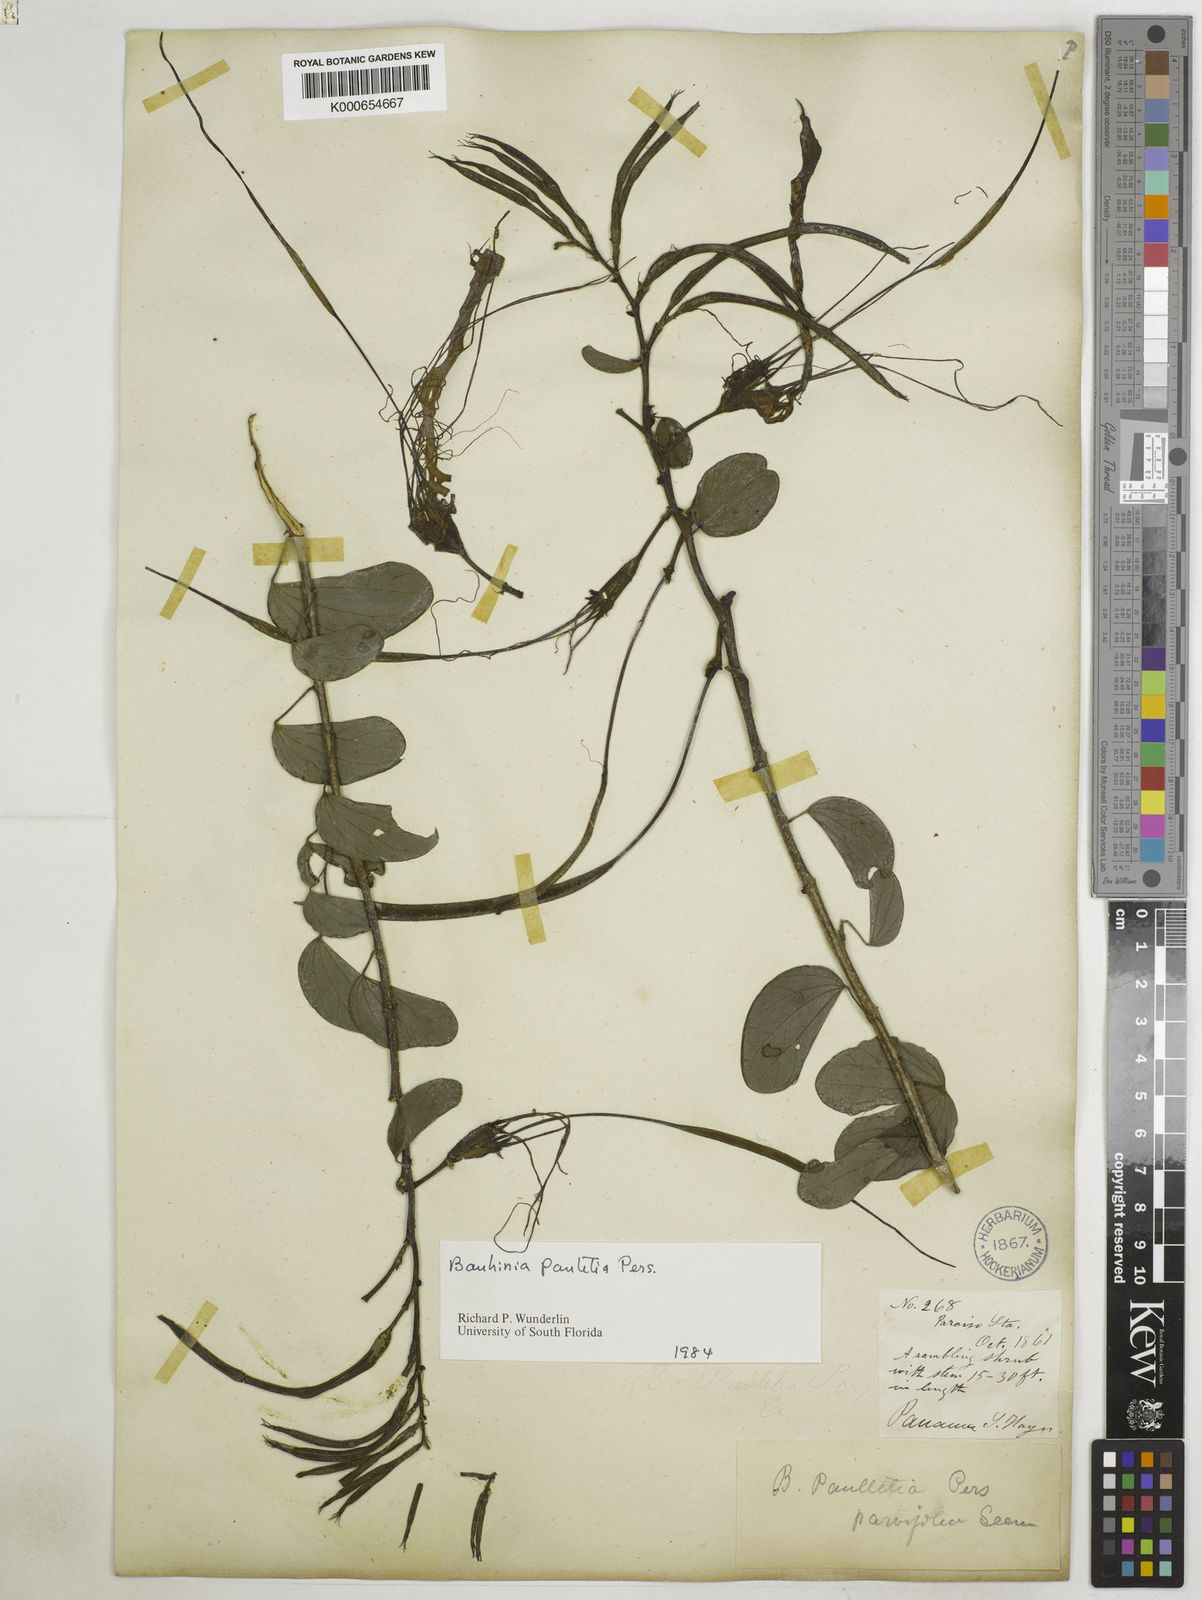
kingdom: Plantae
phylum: Tracheophyta
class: Magnoliopsida
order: Fabales
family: Fabaceae
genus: Bauhinia
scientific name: Bauhinia pauletia
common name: Railway-fence bauhinia
